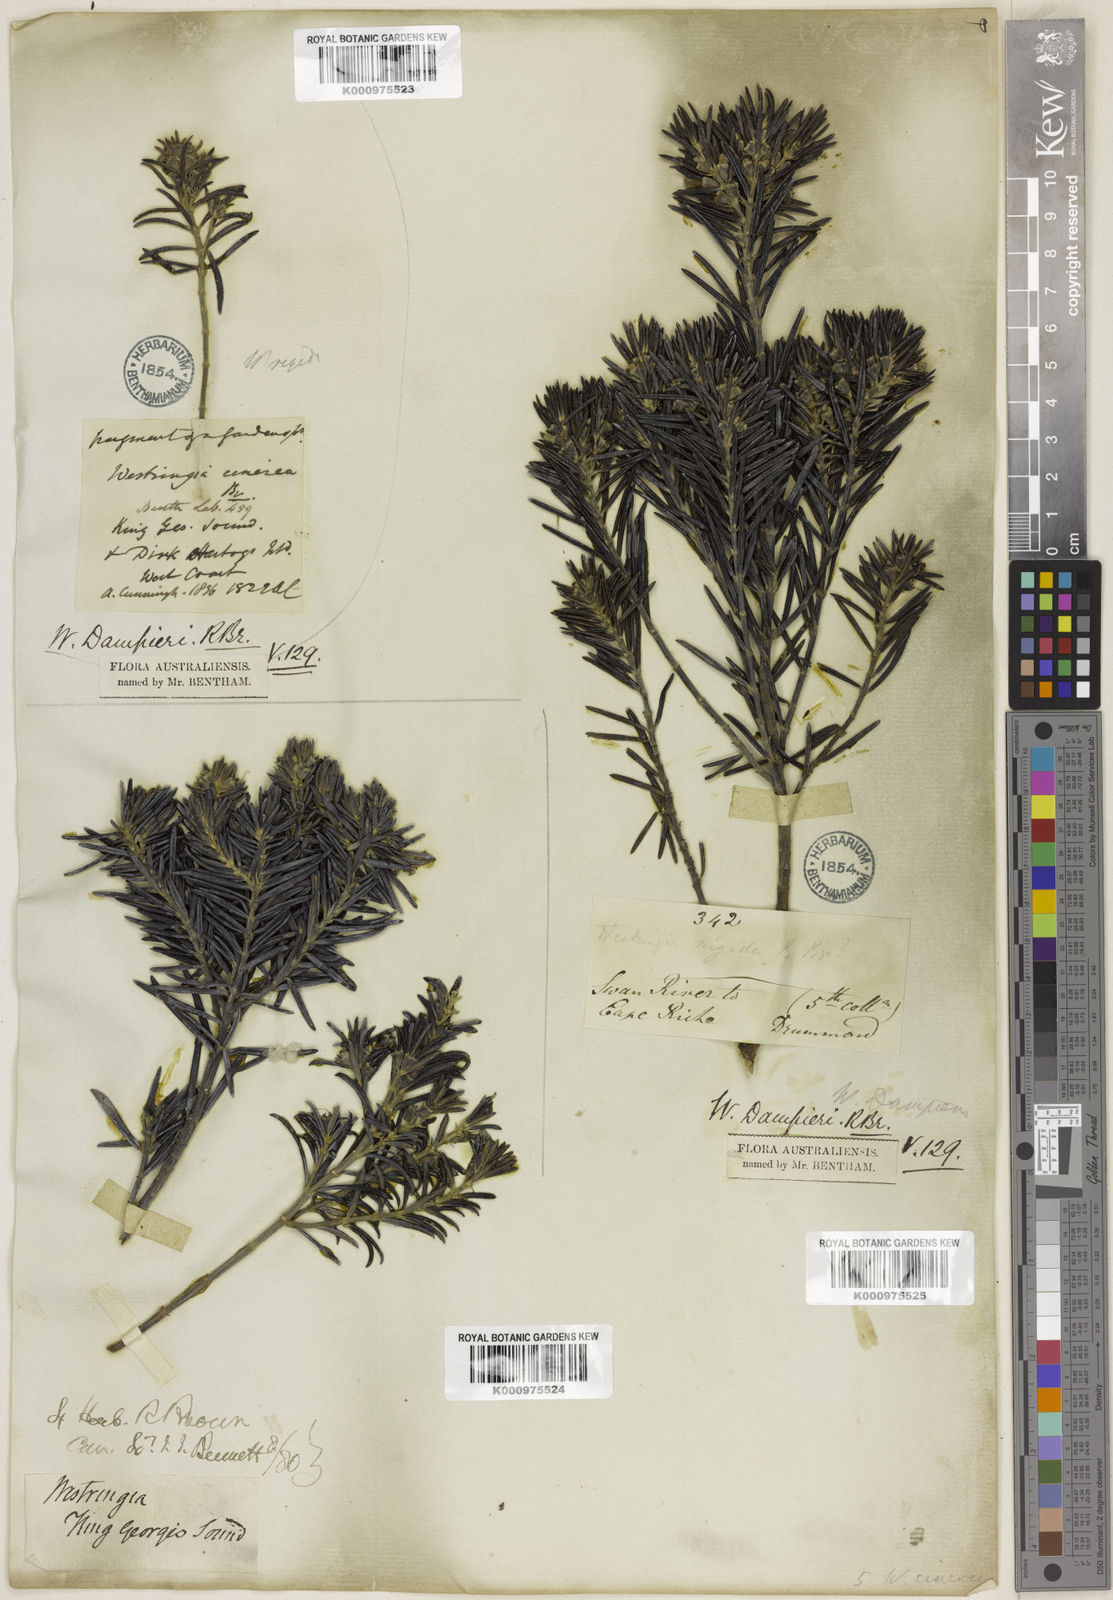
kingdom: Plantae
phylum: Tracheophyta
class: Magnoliopsida
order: Lamiales
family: Lamiaceae
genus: Westringia
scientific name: Westringia dampieri
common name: Shore westringia
